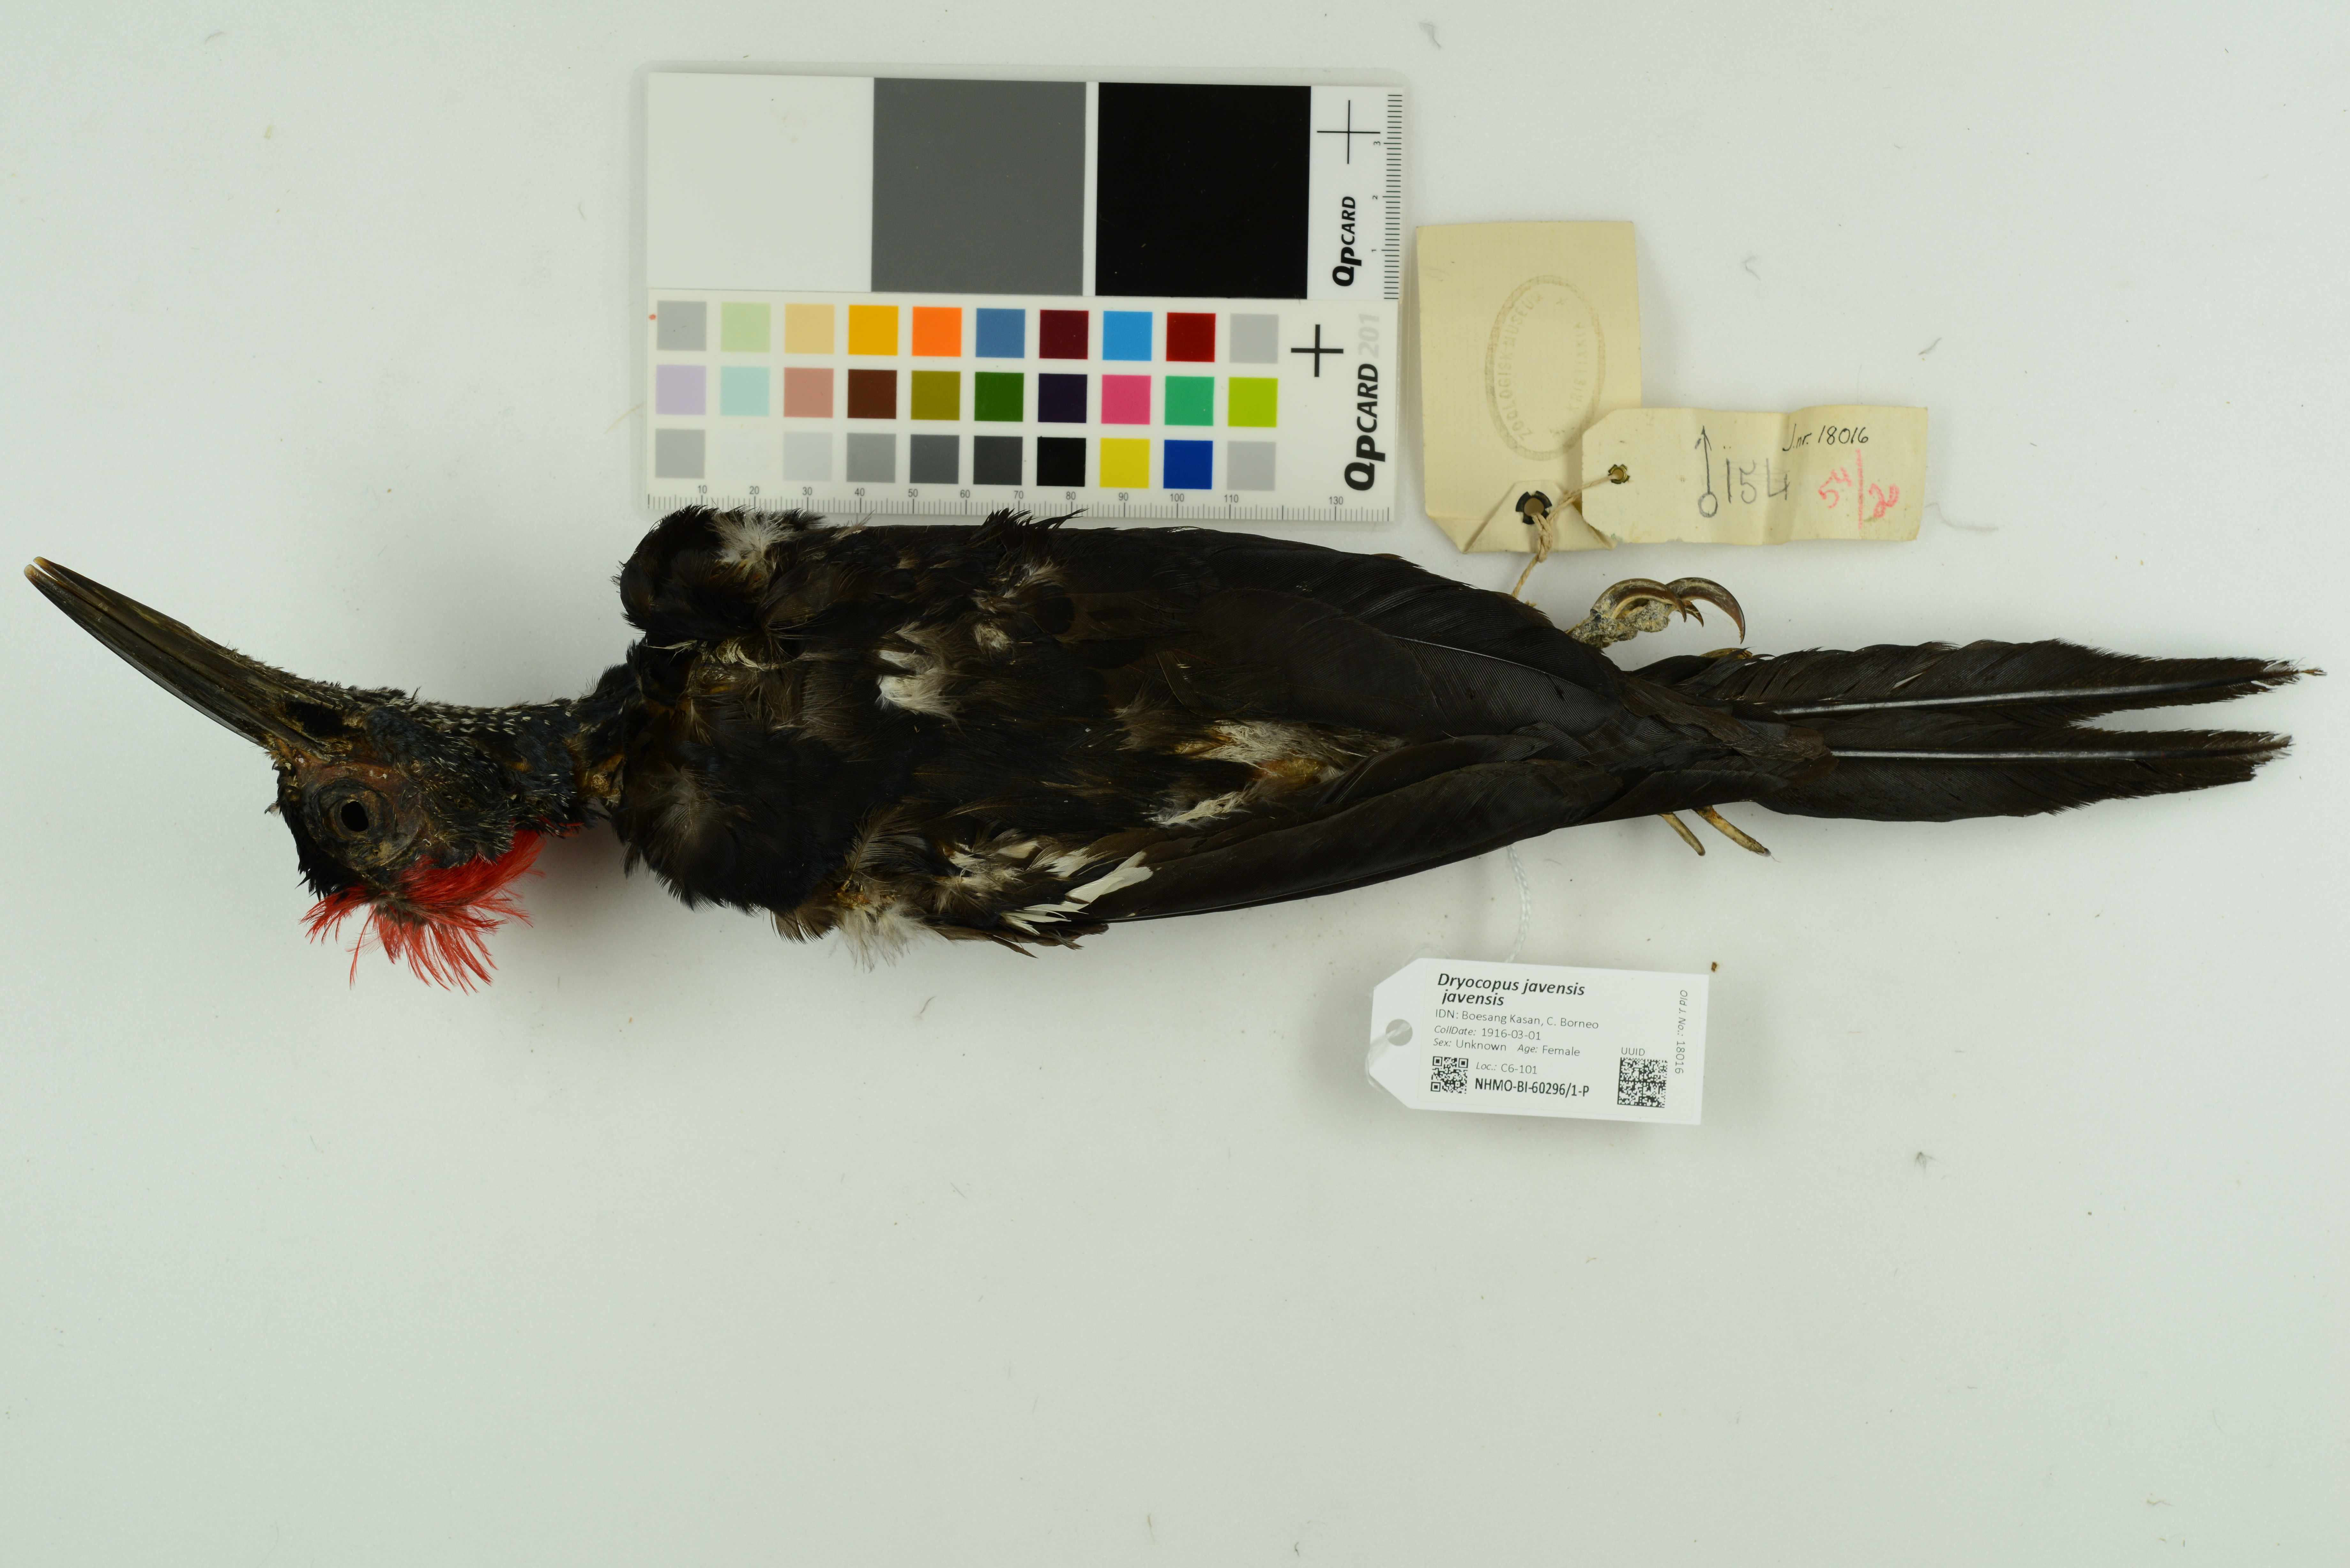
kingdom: Animalia
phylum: Chordata
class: Aves
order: Piciformes
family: Picidae
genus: Dryocopus
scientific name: Dryocopus javensis
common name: White-bellied woodpecker
